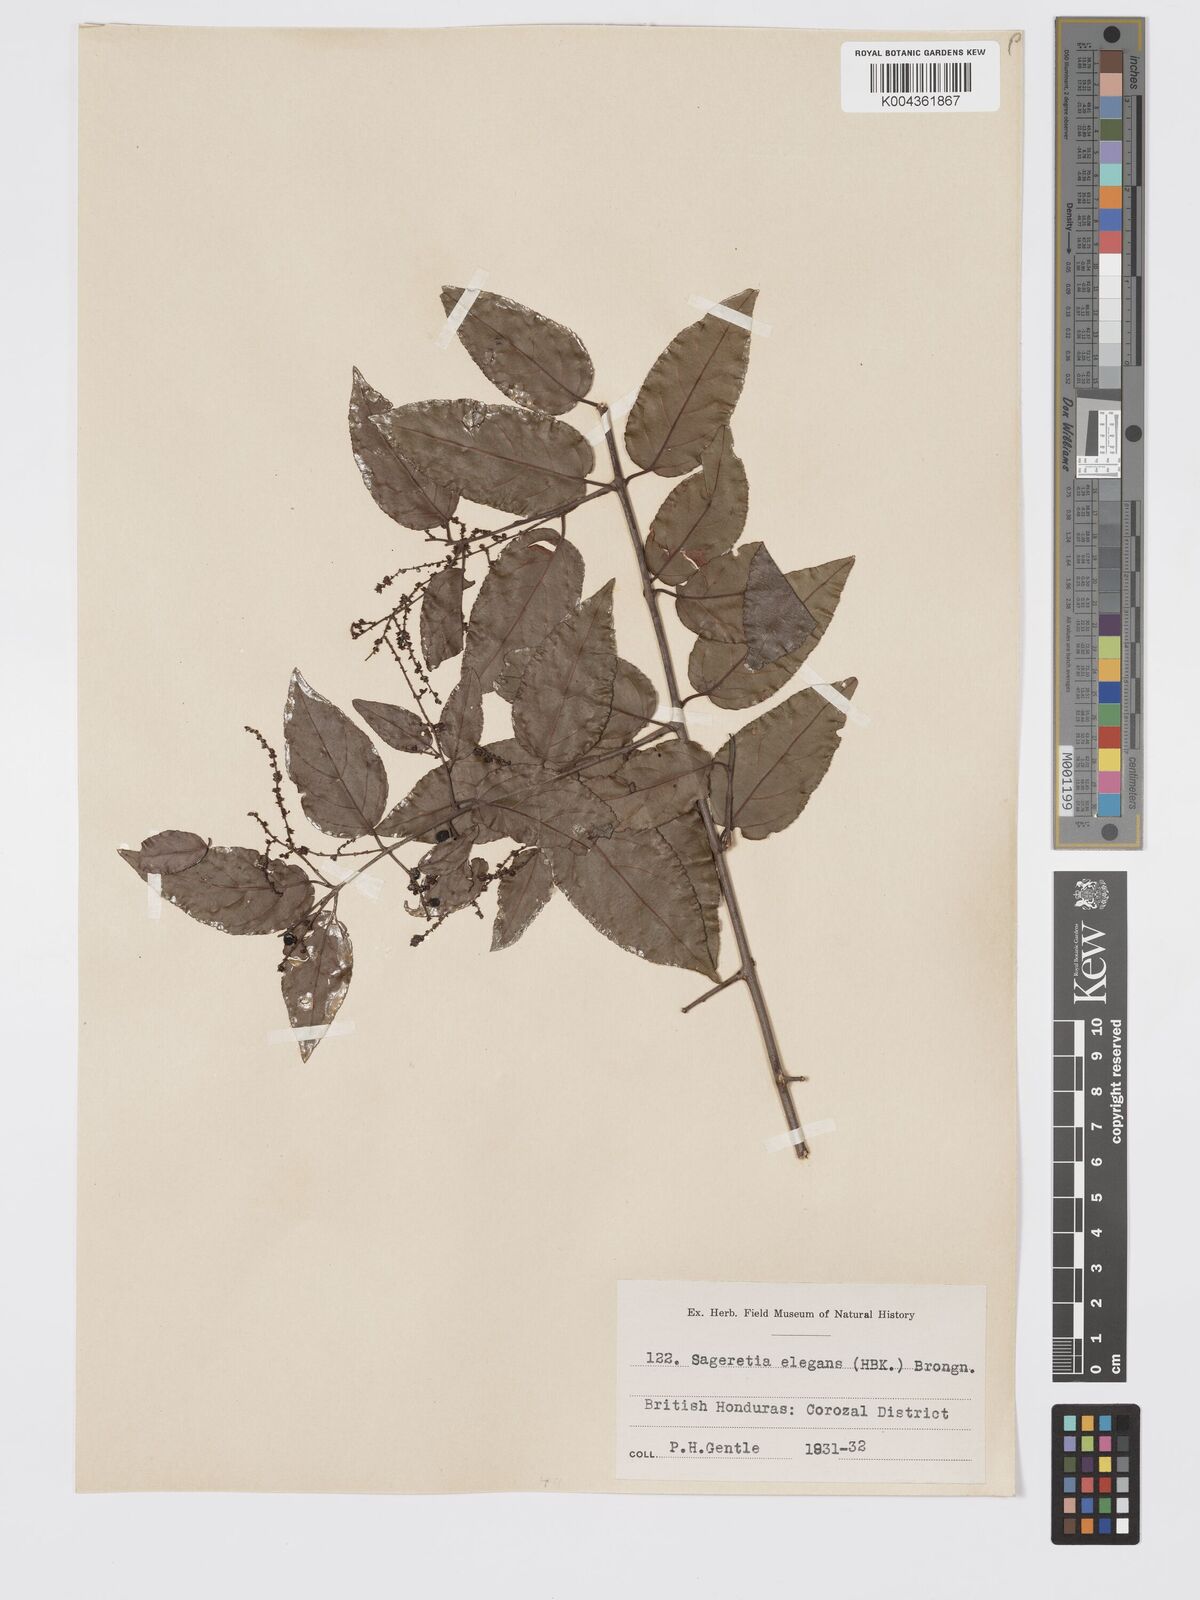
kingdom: Plantae
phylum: Tracheophyta
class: Magnoliopsida
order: Rosales
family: Rhamnaceae
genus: Sageretia
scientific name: Sageretia elegans
